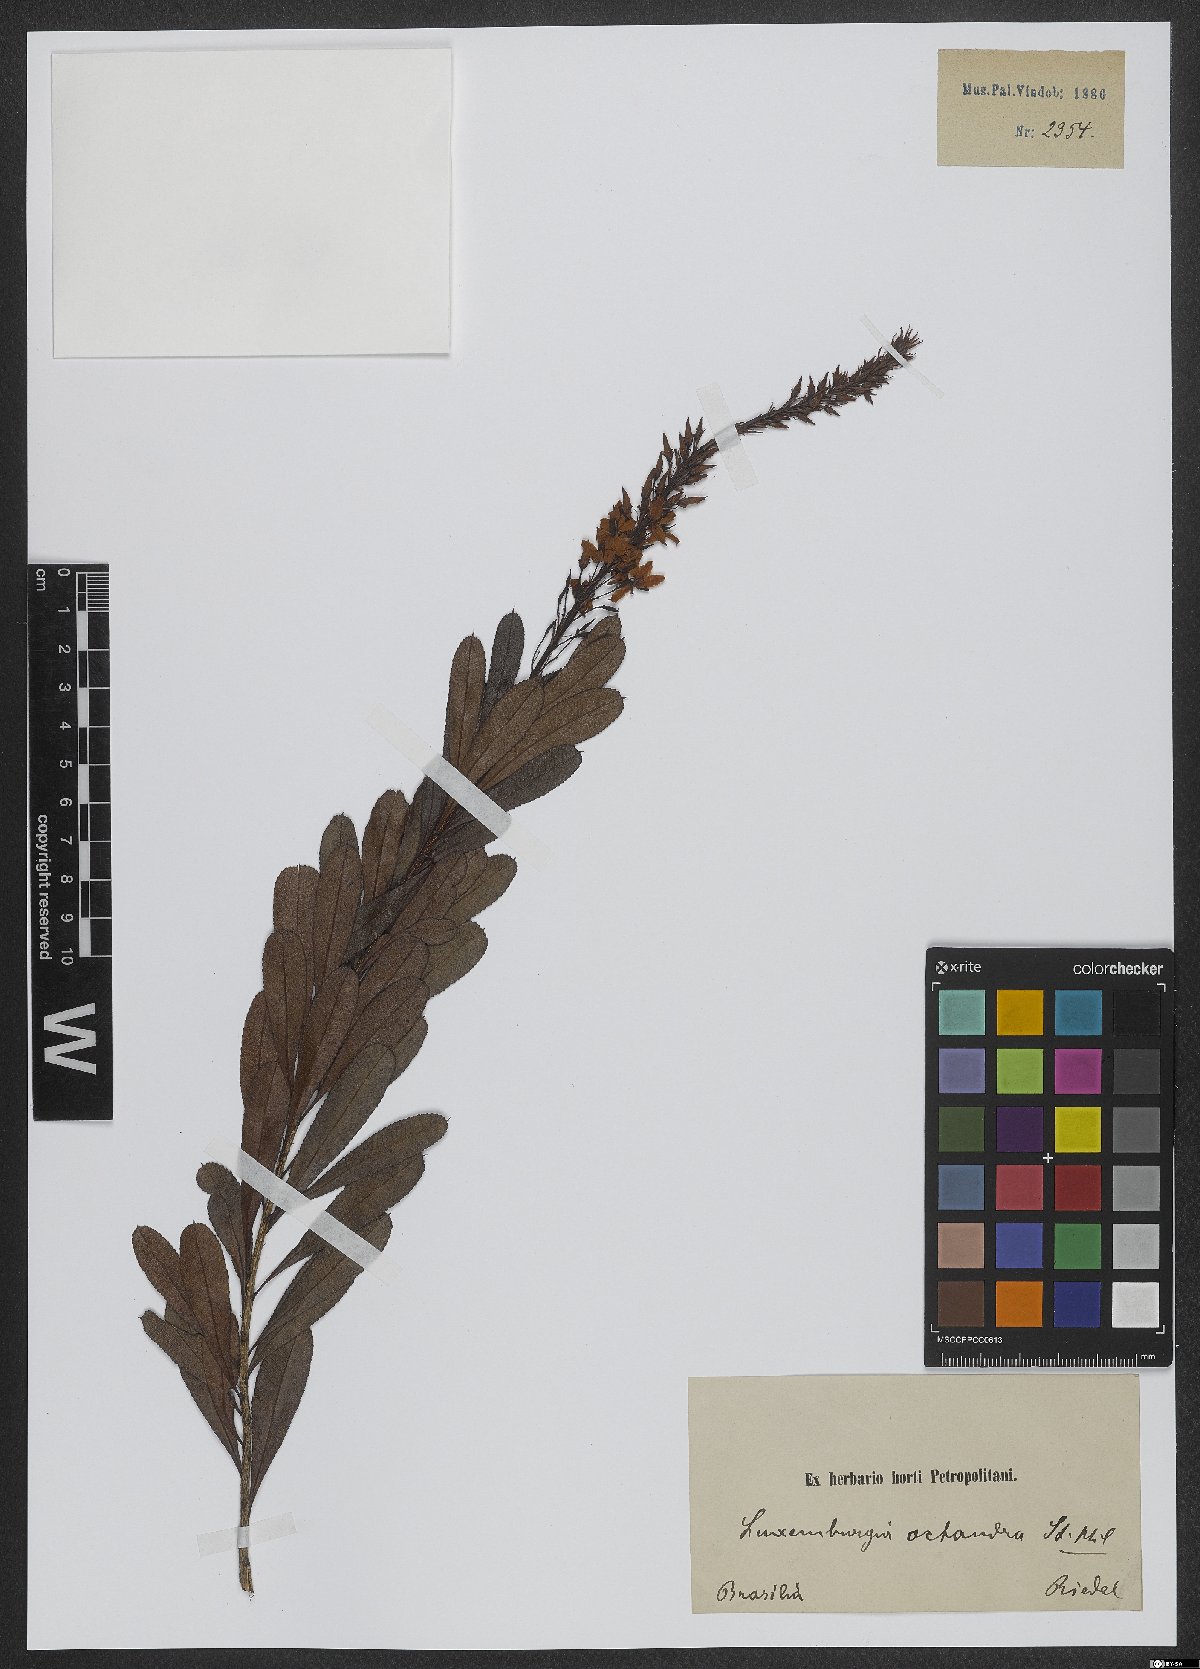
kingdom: Plantae
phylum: Tracheophyta
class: Magnoliopsida
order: Malpighiales
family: Ochnaceae
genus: Luxemburgia
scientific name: Luxemburgia octandra
